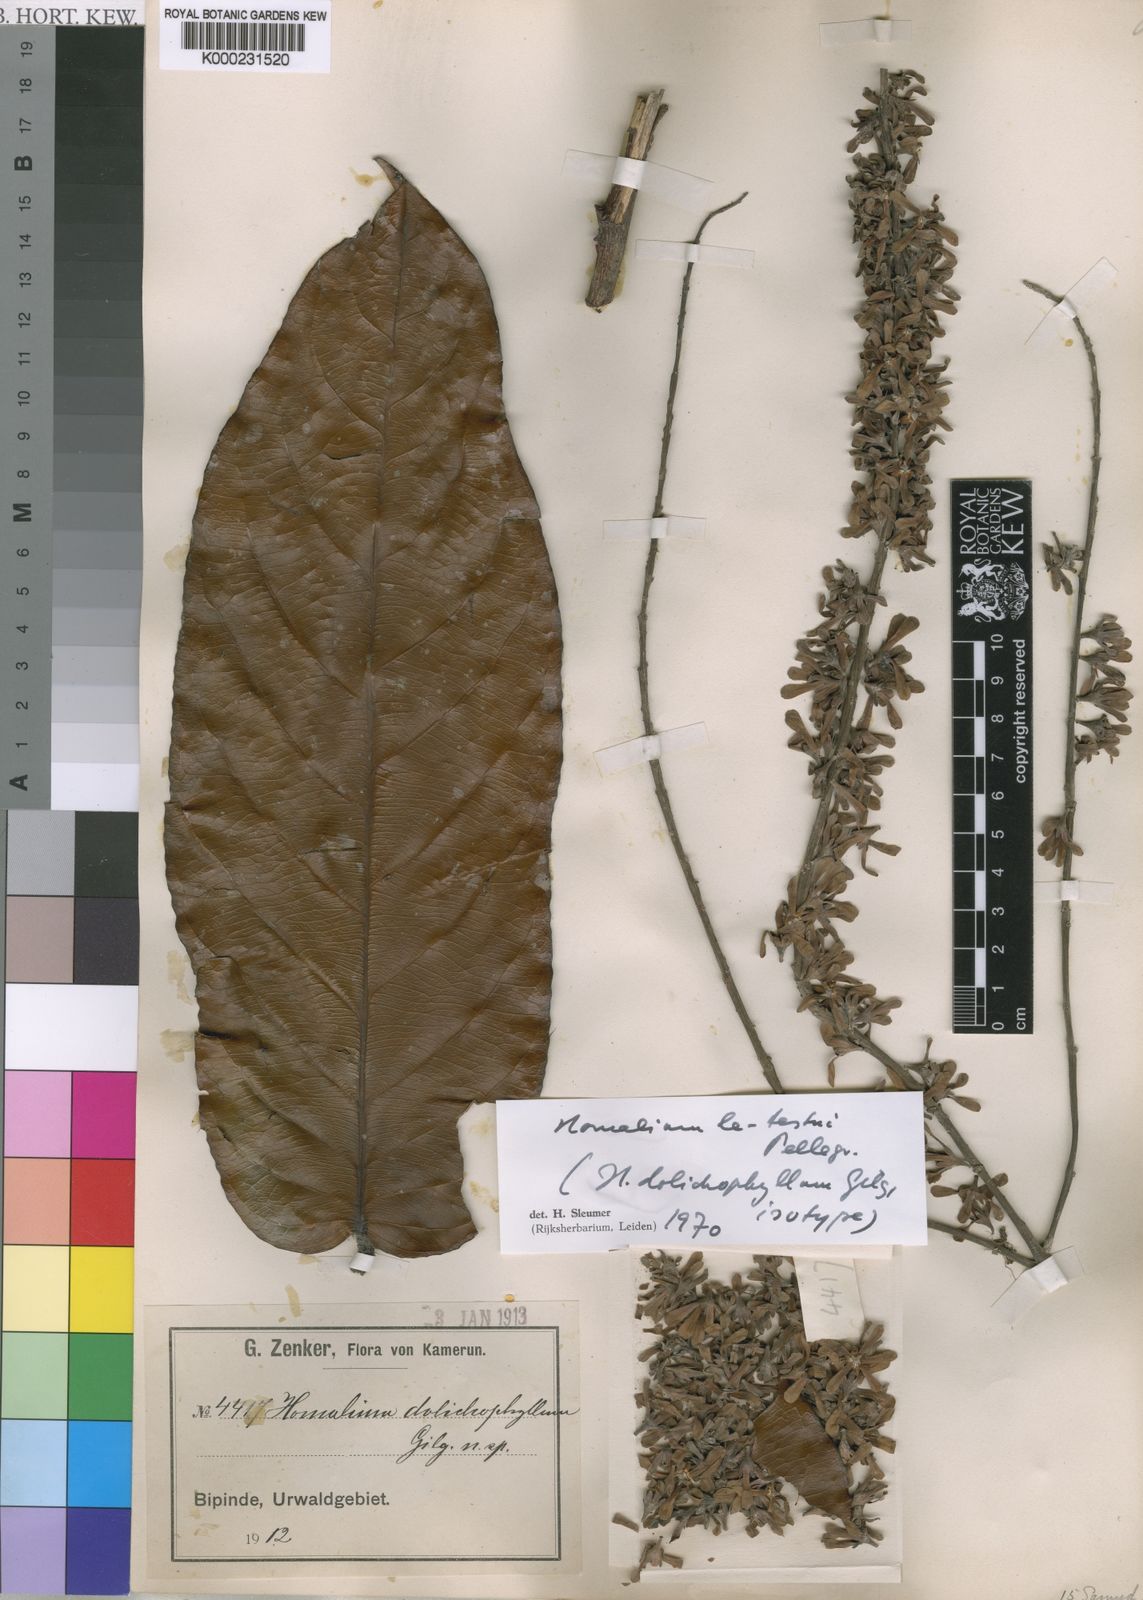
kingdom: Plantae
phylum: Tracheophyta
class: Magnoliopsida
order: Malpighiales
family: Salicaceae
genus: Homalium
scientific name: Homalium letestui
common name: African homalium
